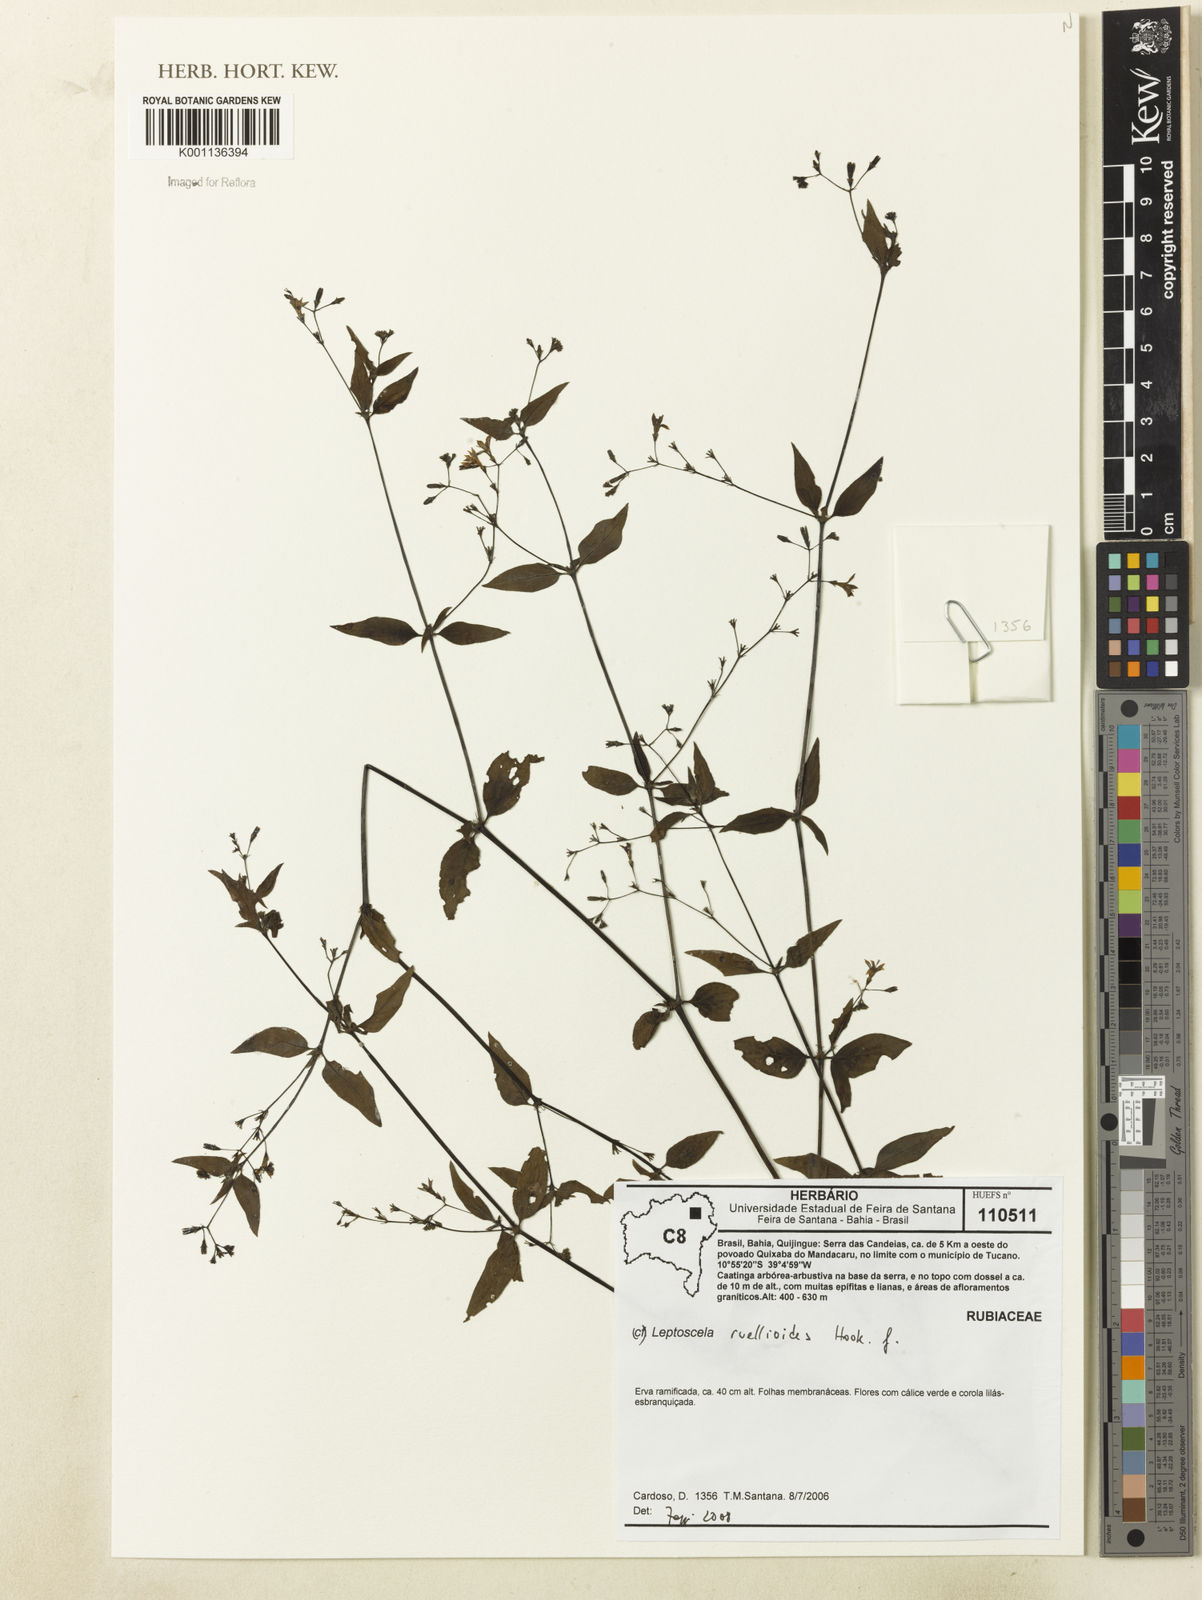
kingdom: Plantae
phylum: Tracheophyta
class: Magnoliopsida
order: Gentianales
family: Rubiaceae
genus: Leptoscela
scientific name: Leptoscela ruellioides
